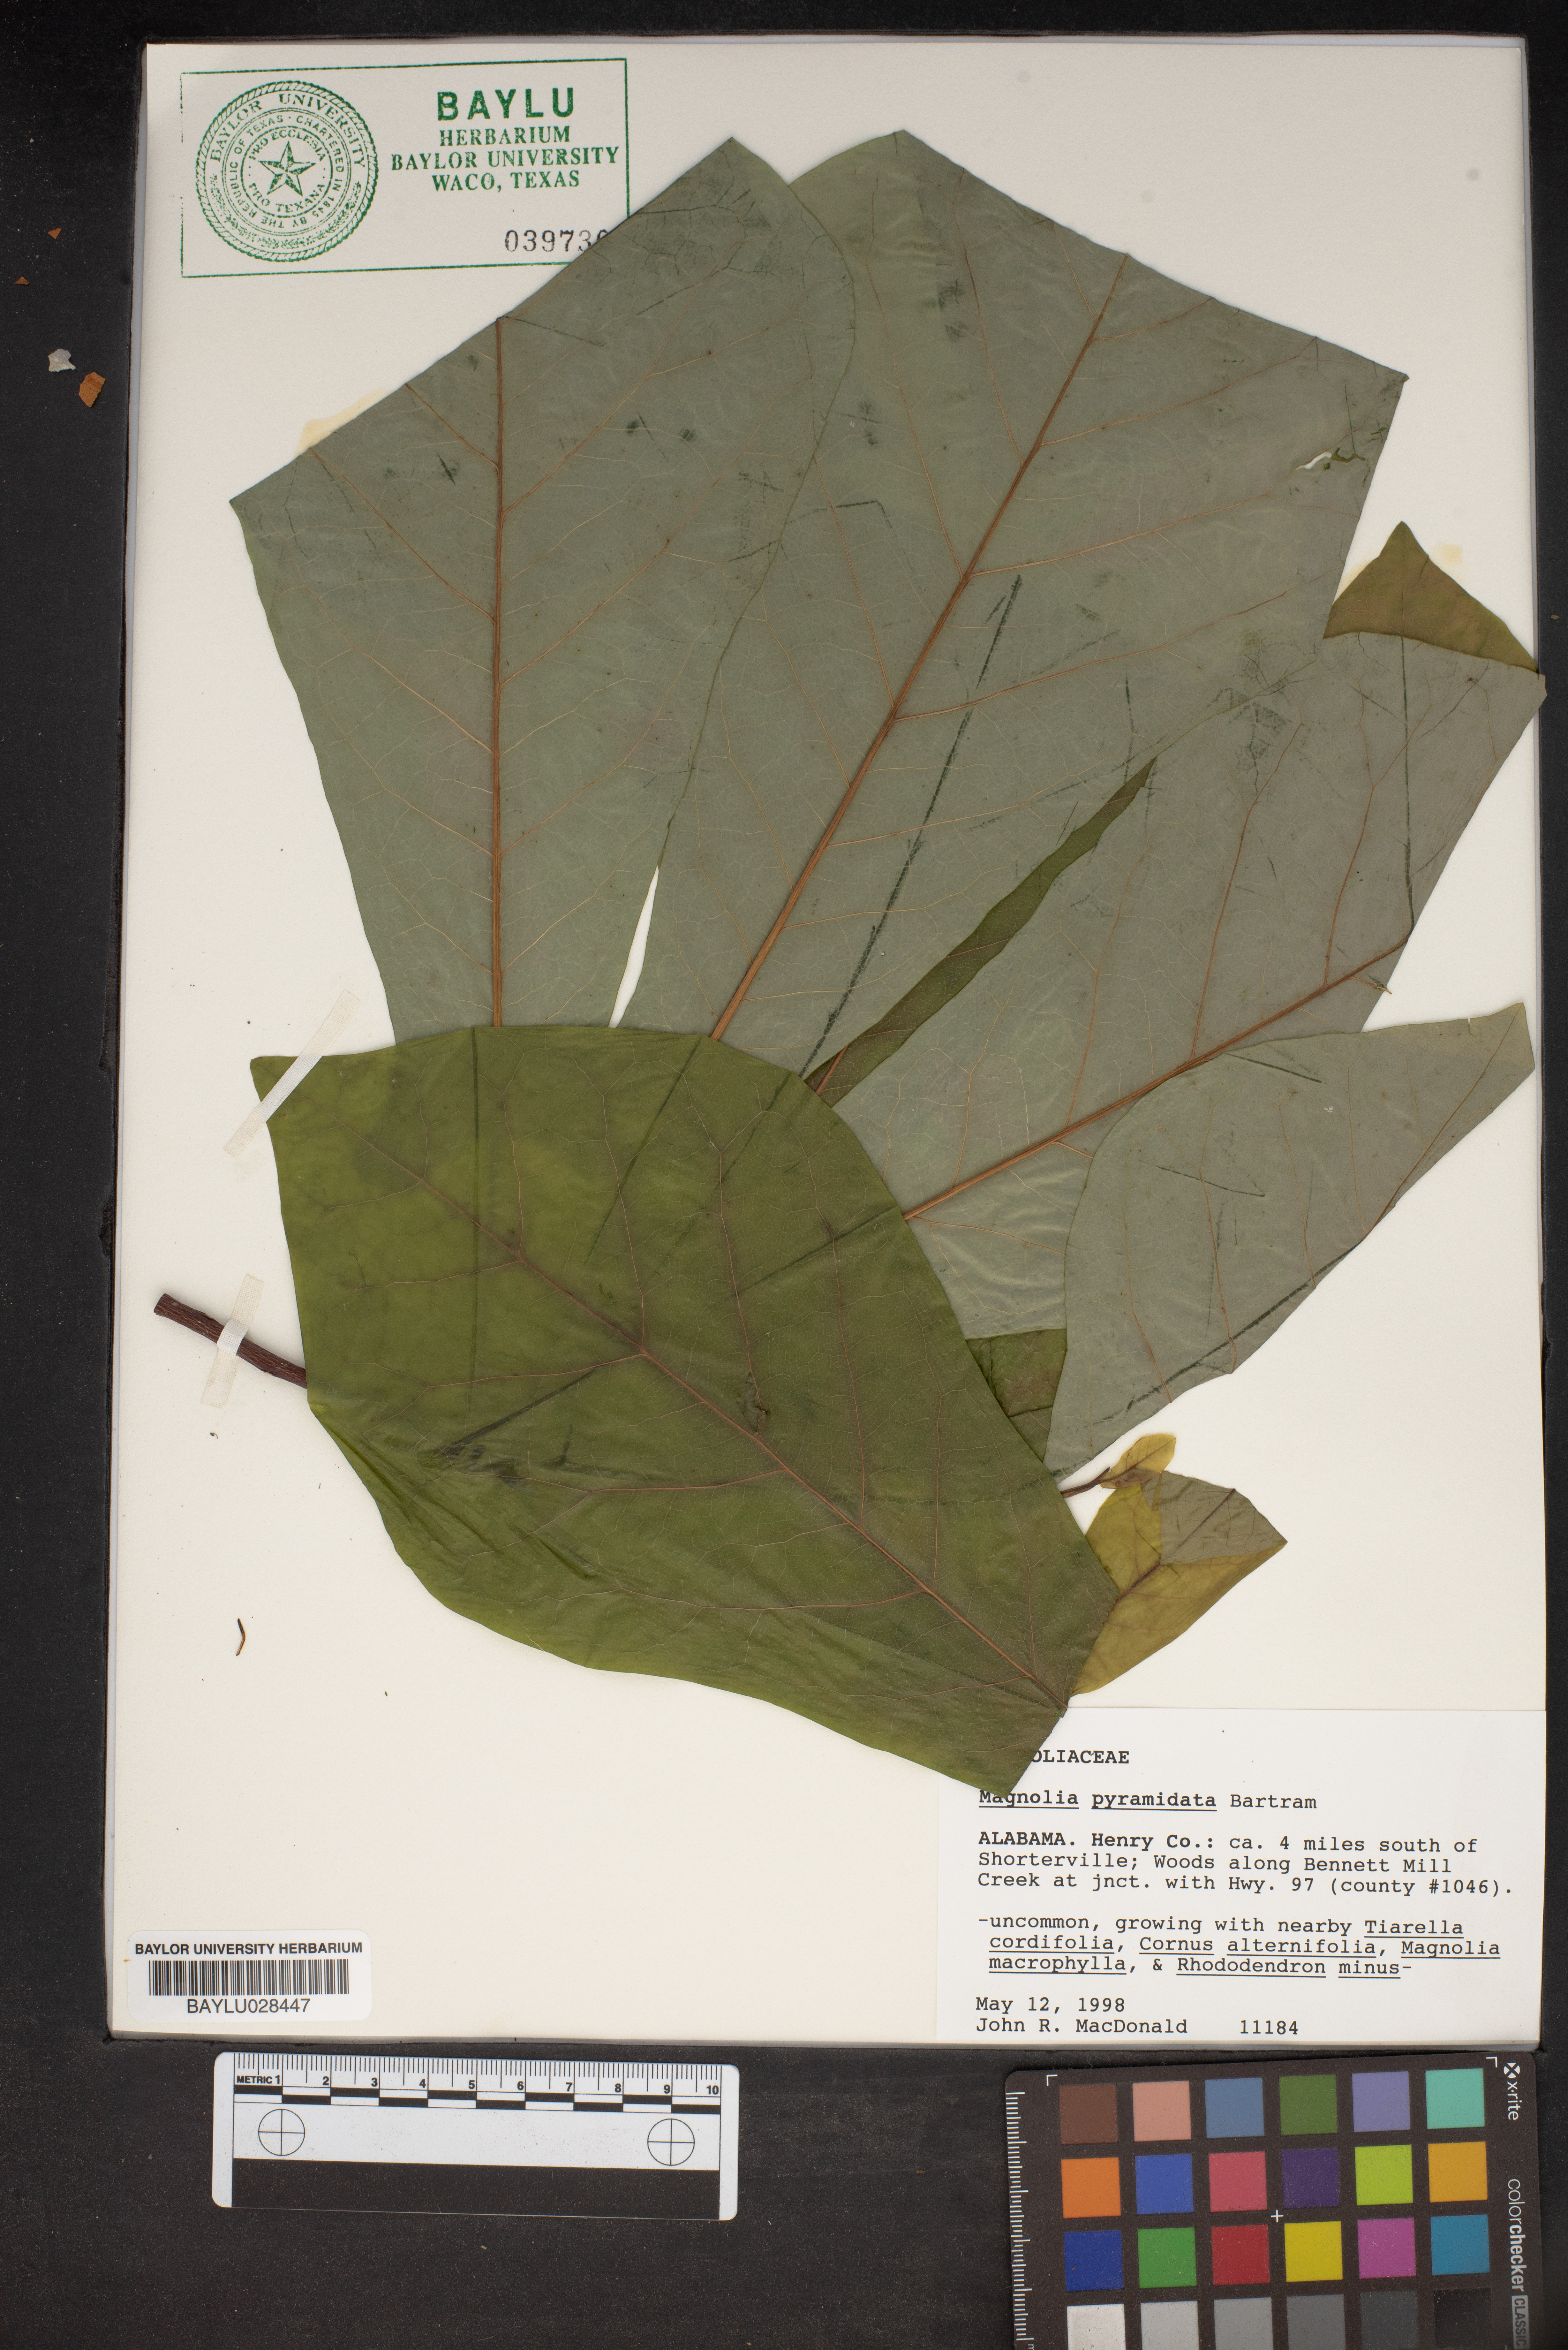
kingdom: Plantae
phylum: Tracheophyta
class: Magnoliopsida
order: Magnoliales
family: Magnoliaceae
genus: Magnolia
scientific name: Magnolia fraseri
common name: Fraser's magnolia
